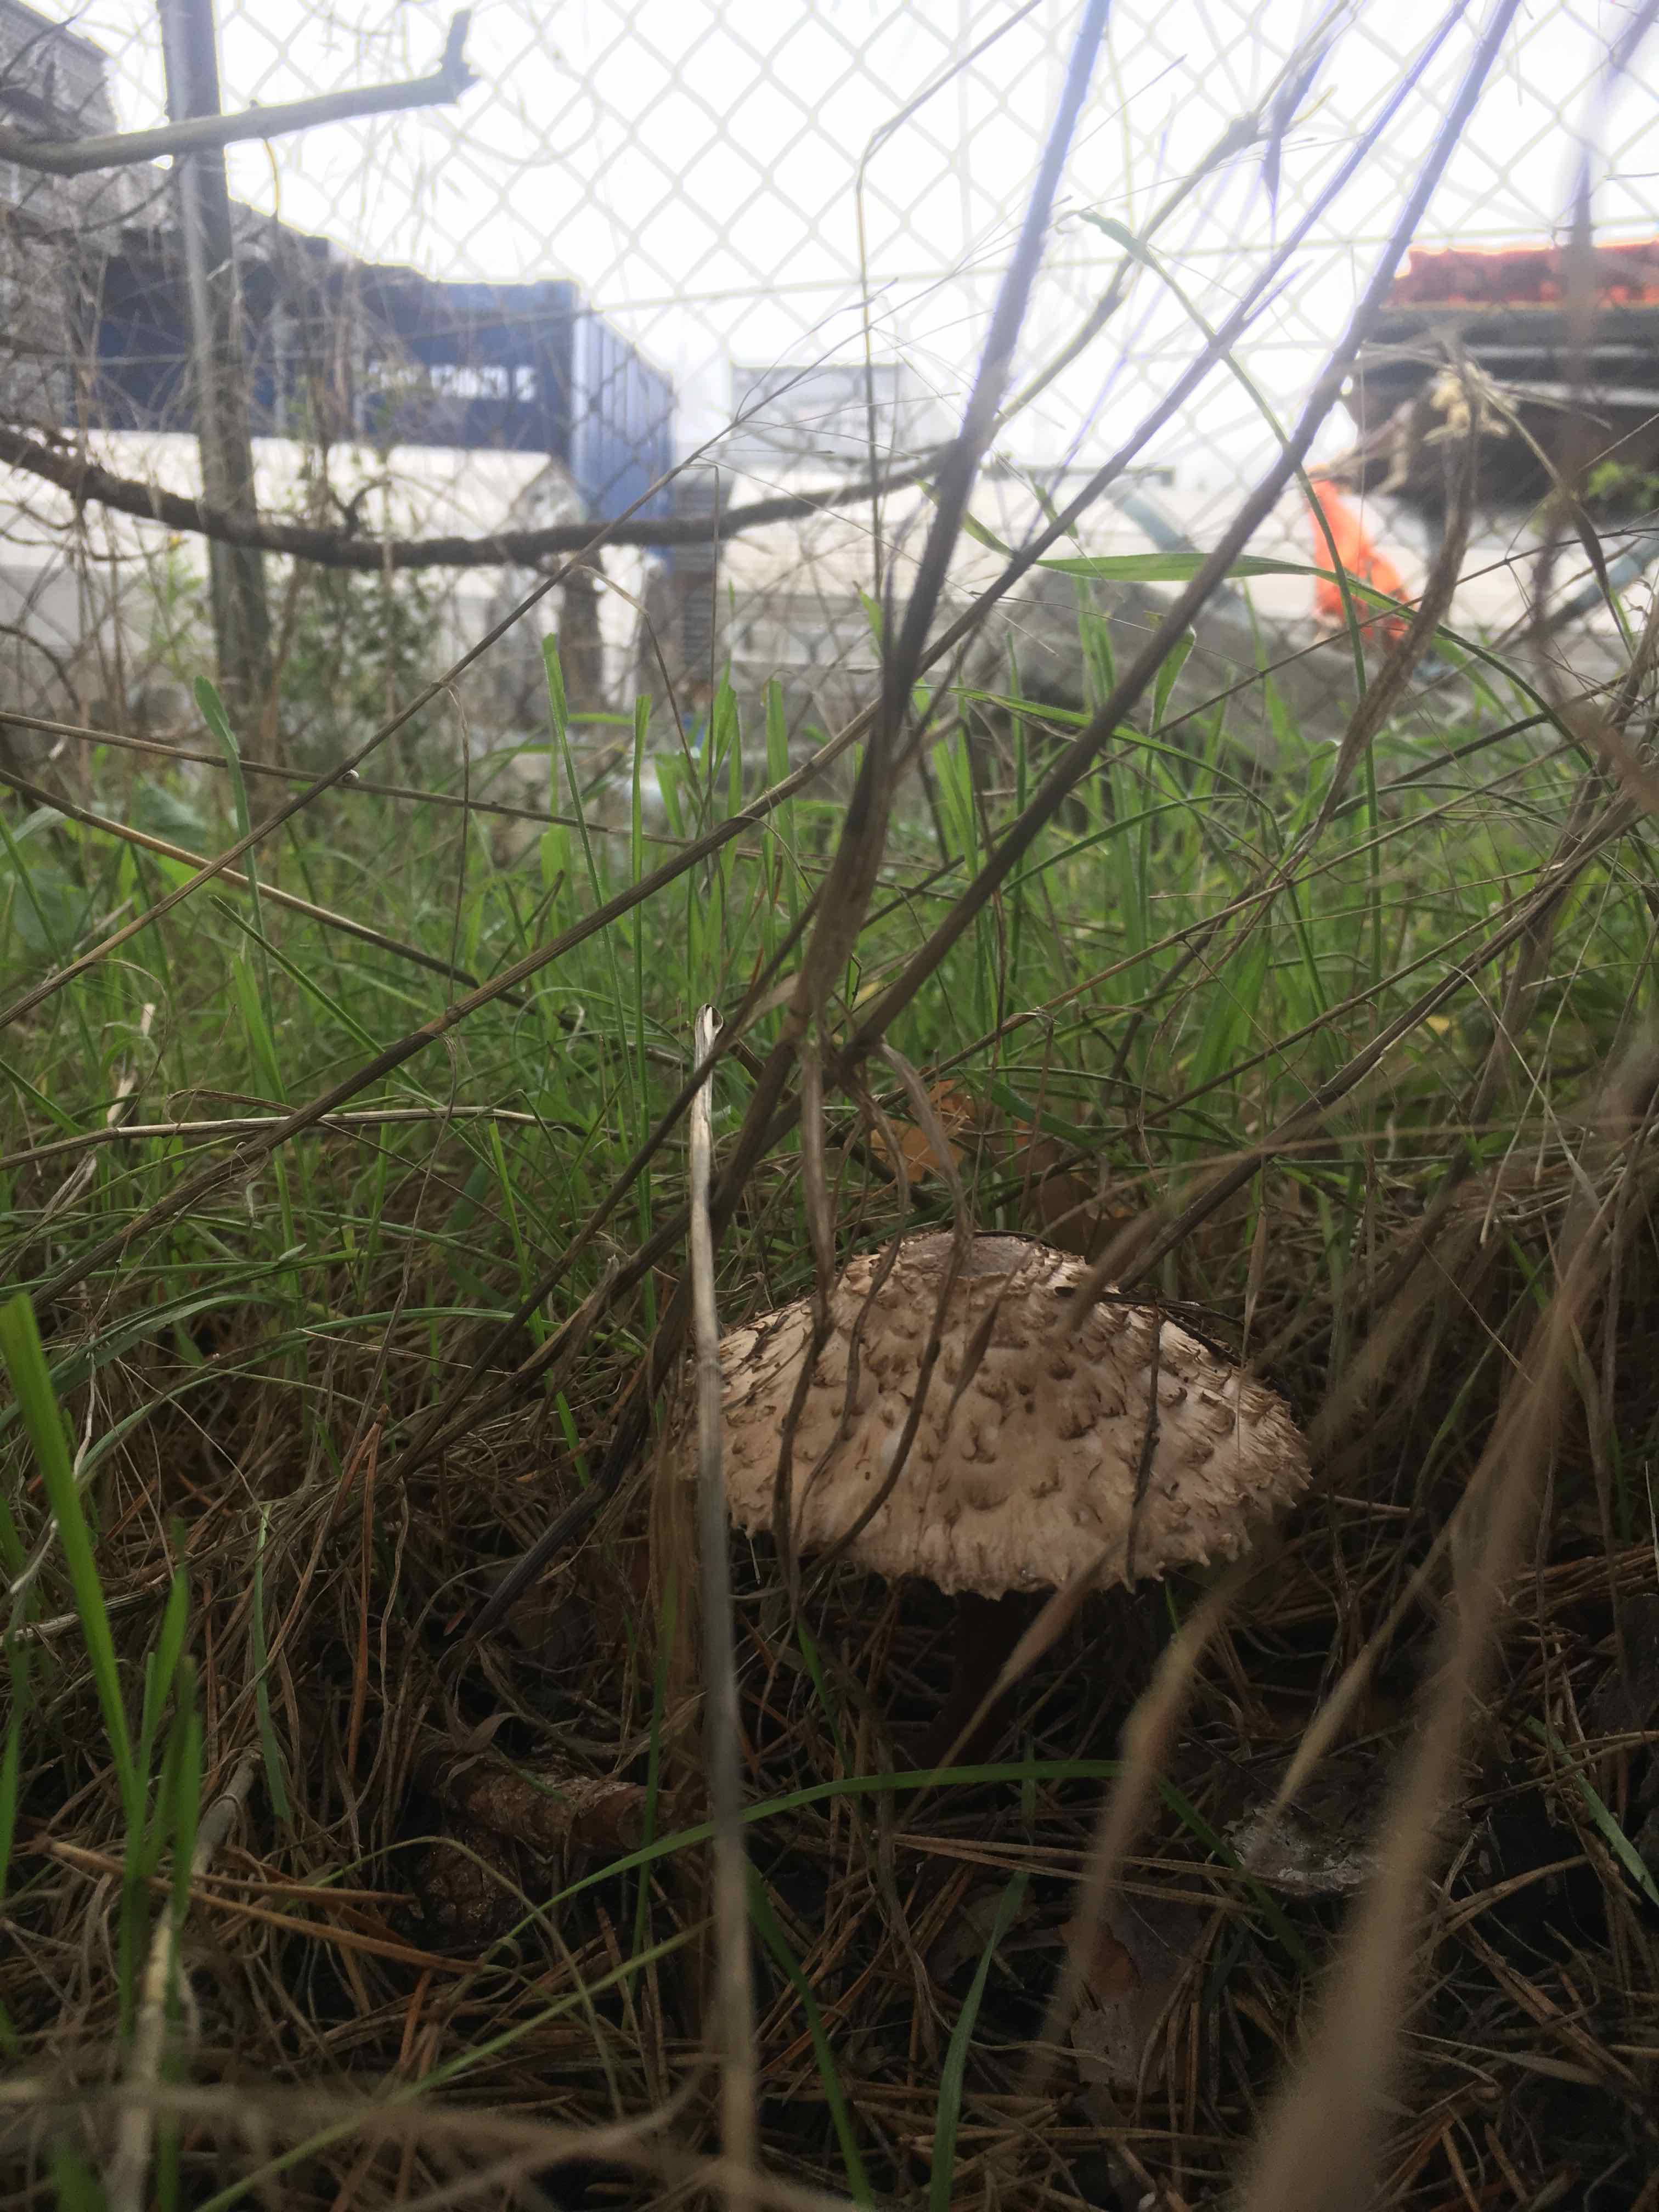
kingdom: Fungi
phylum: Basidiomycota
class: Agaricomycetes
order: Agaricales
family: Agaricaceae
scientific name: Agaricaceae
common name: champignonfamilien
